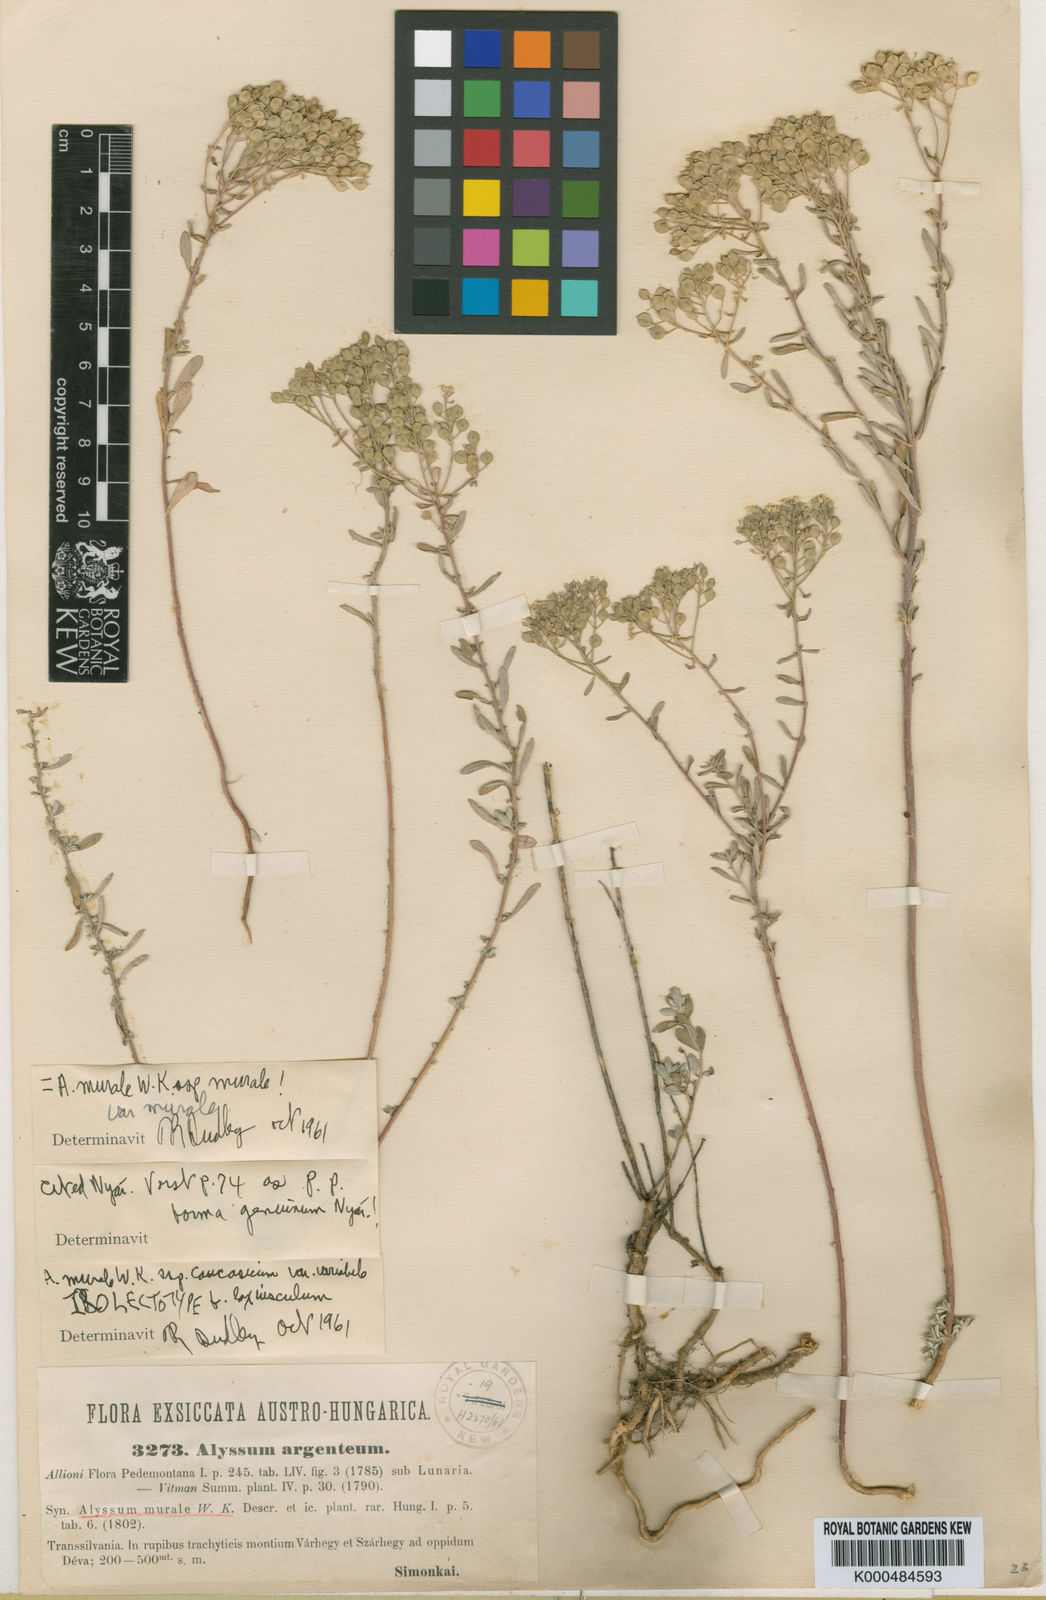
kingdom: Plantae
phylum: Tracheophyta
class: Magnoliopsida
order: Brassicales
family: Brassicaceae
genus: Odontarrhena
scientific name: Odontarrhena muralis
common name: Rock alyssum
